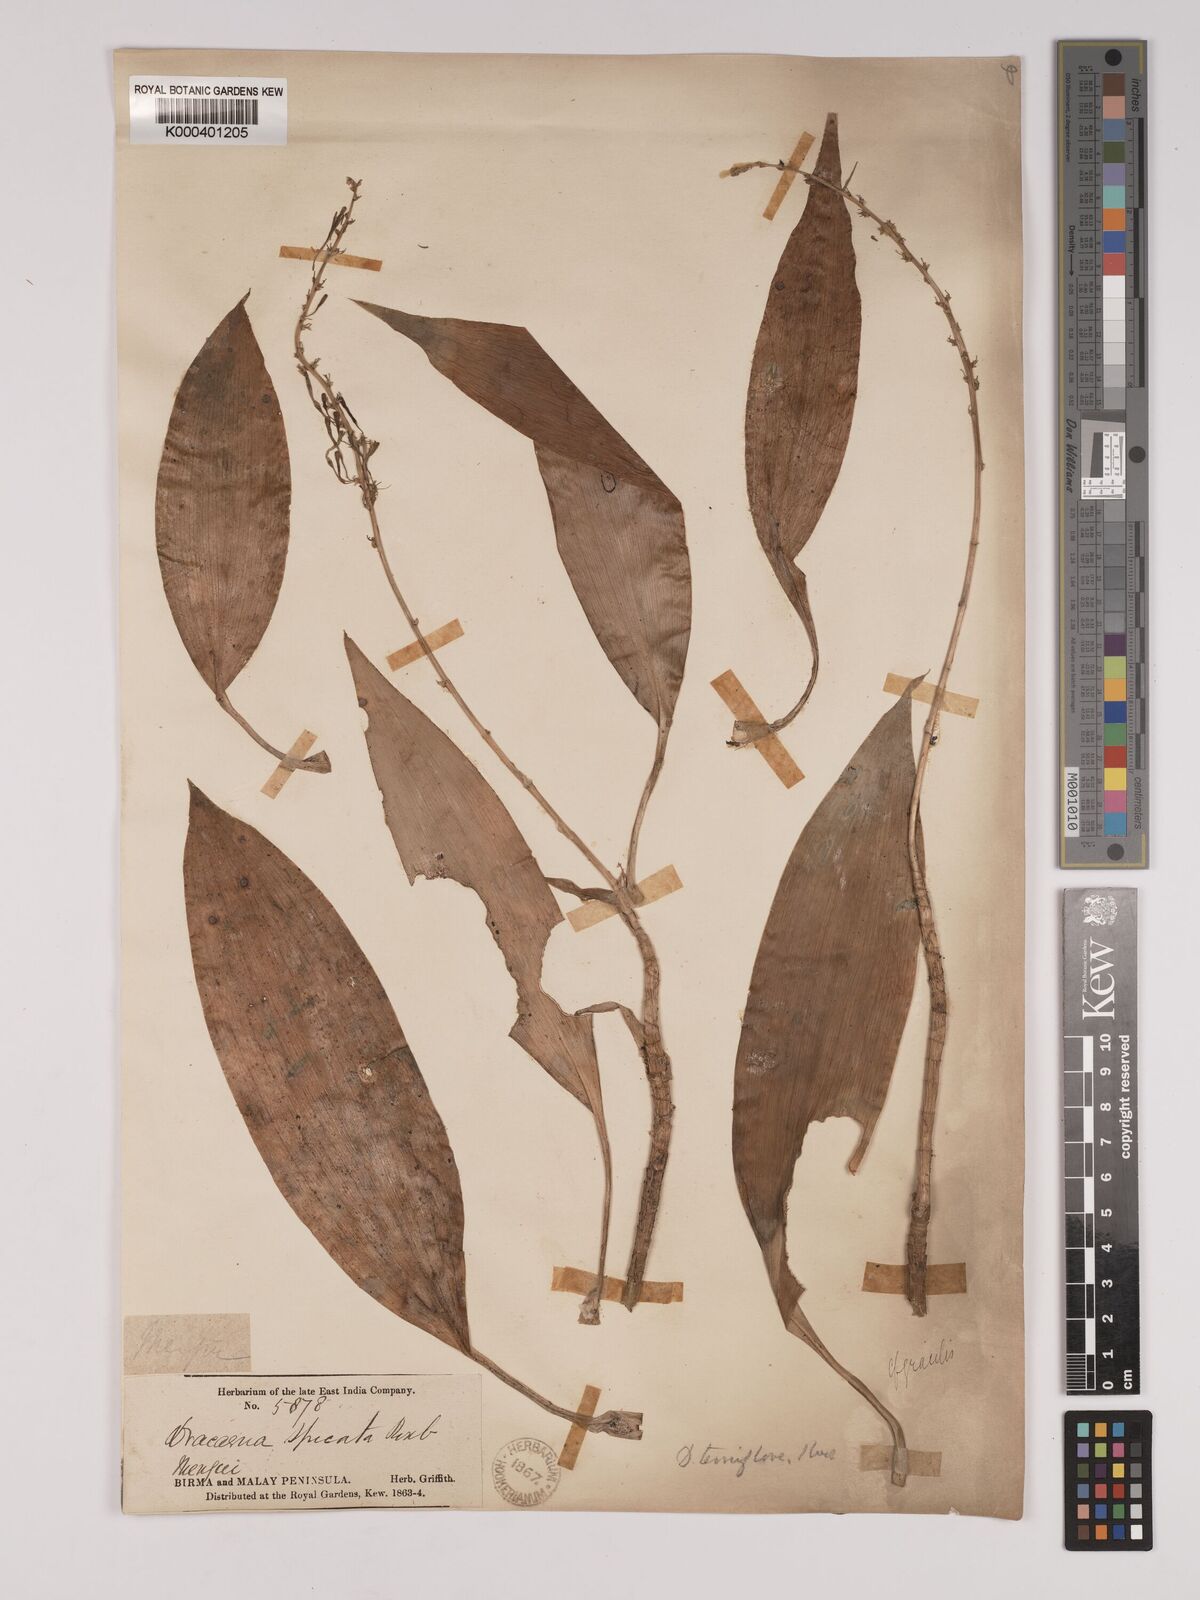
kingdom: Plantae
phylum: Tracheophyta
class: Liliopsida
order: Asparagales
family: Asparagaceae
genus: Dracaena
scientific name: Dracaena terniflora
